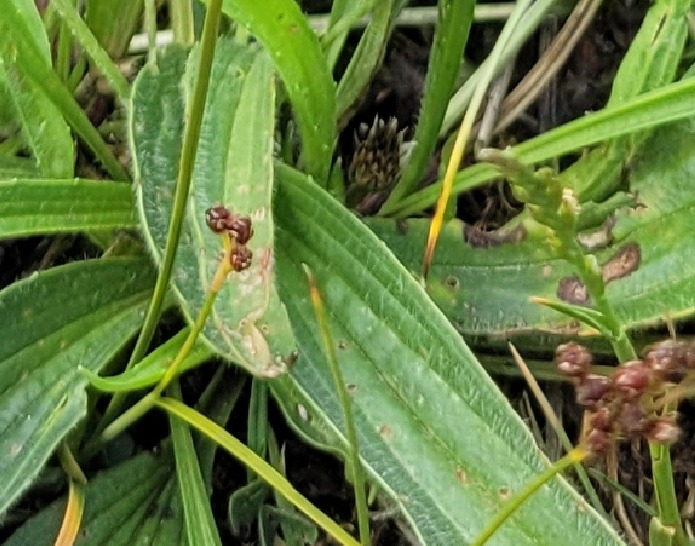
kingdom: Plantae
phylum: Tracheophyta
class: Magnoliopsida
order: Lamiales
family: Plantaginaceae
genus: Plantago
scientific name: Plantago lanceolata
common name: Lancet-vejbred
